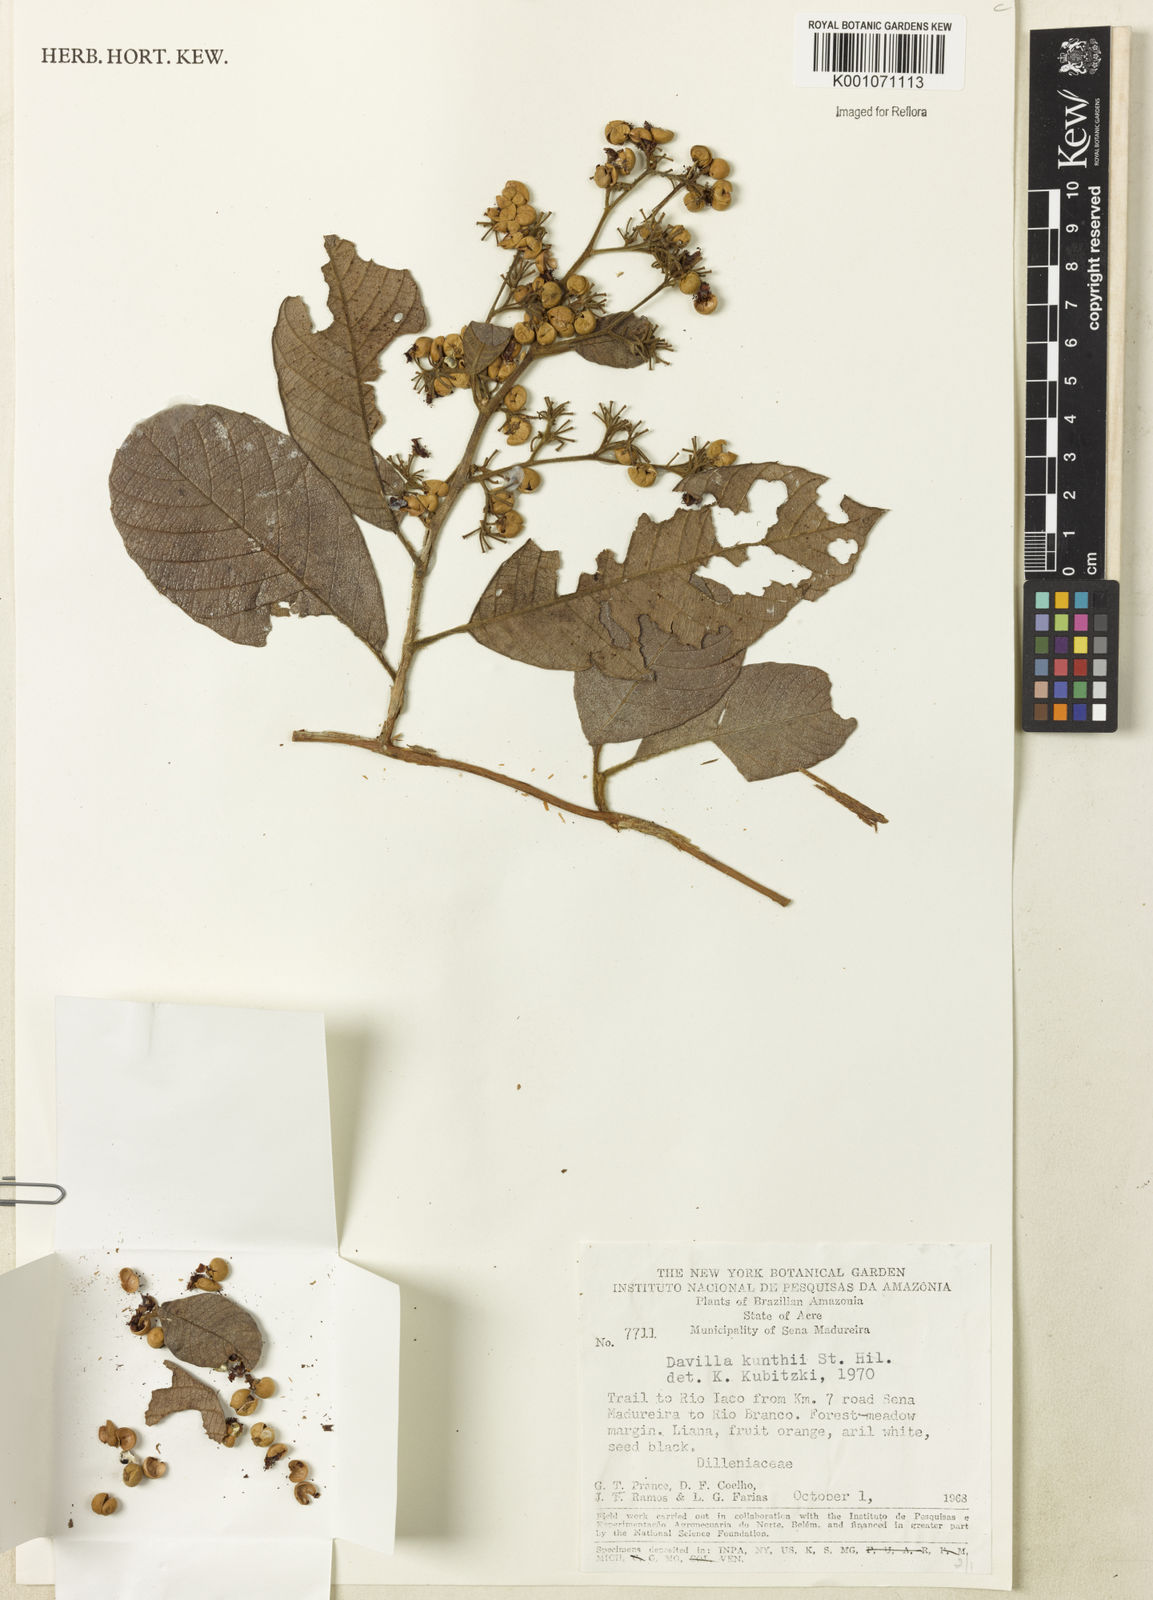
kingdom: Plantae
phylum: Tracheophyta
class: Magnoliopsida
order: Dilleniales
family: Dilleniaceae
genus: Davilla
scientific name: Davilla
